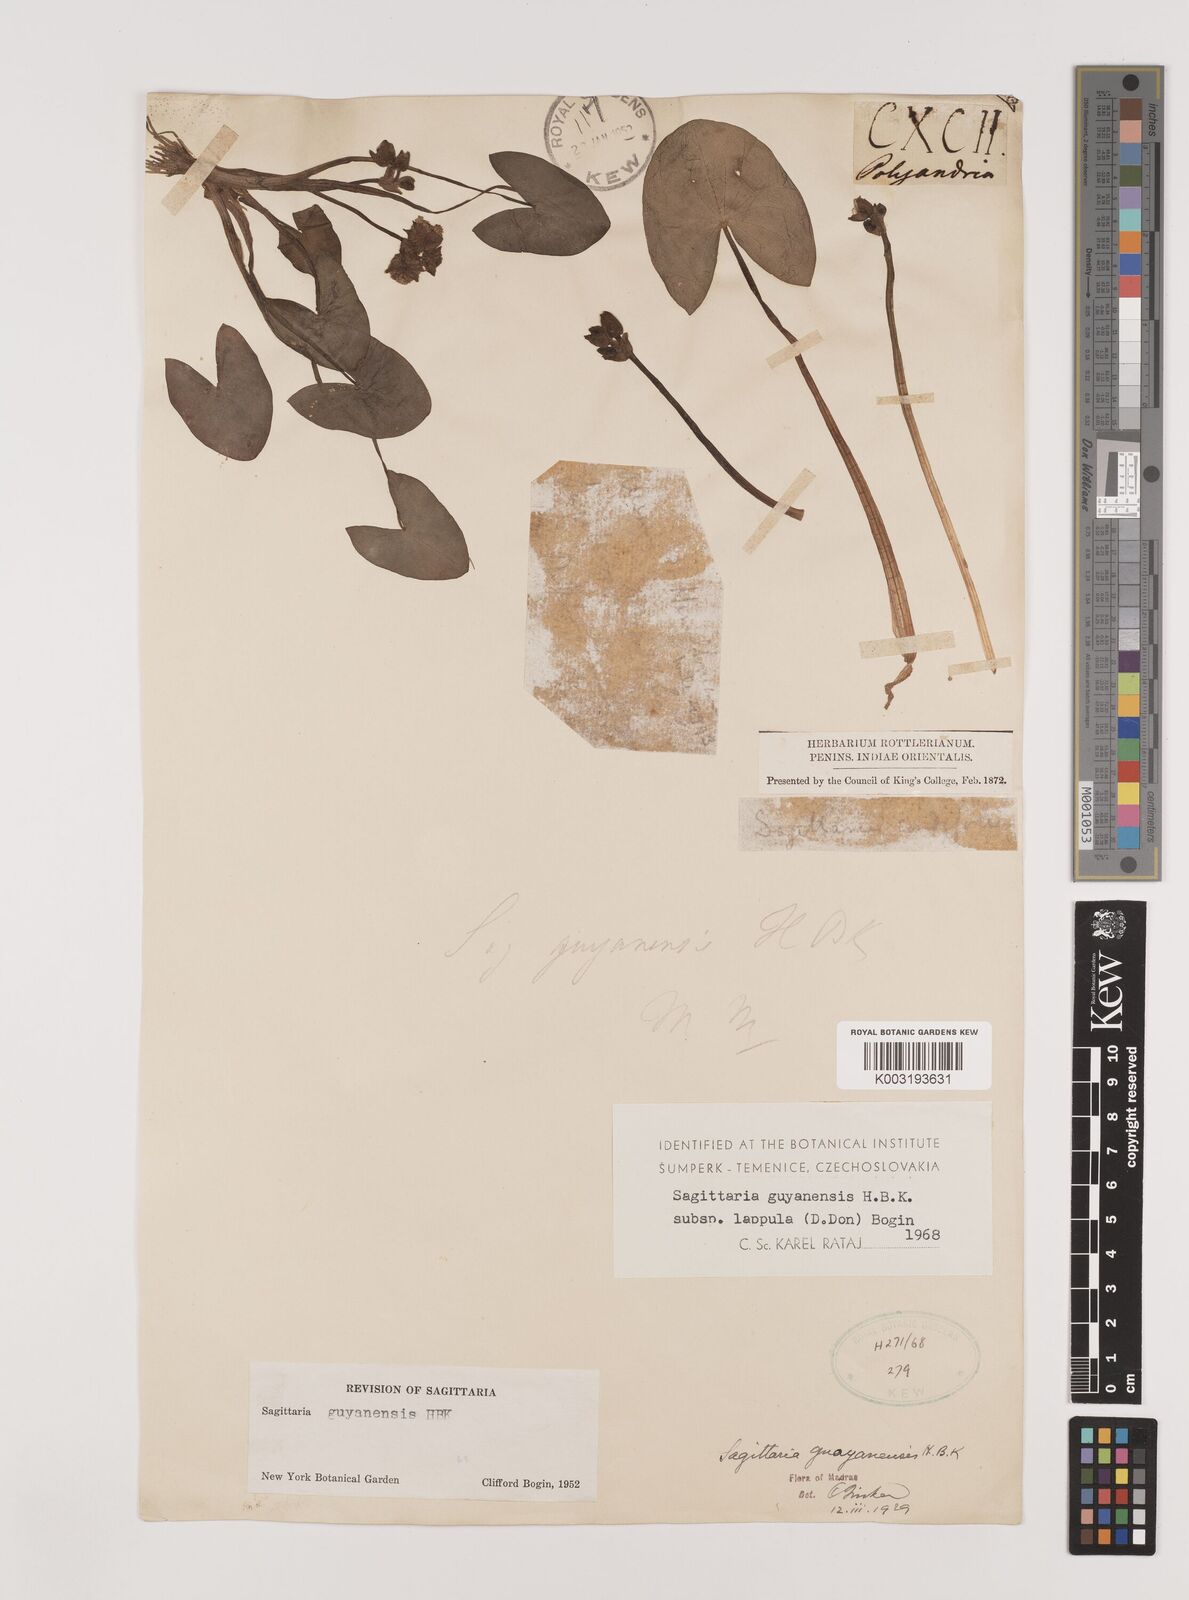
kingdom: Plantae
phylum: Tracheophyta
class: Liliopsida
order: Alismatales
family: Alismataceae
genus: Sagittaria
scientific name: Sagittaria guayanensis
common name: Guyanese arrowhead
